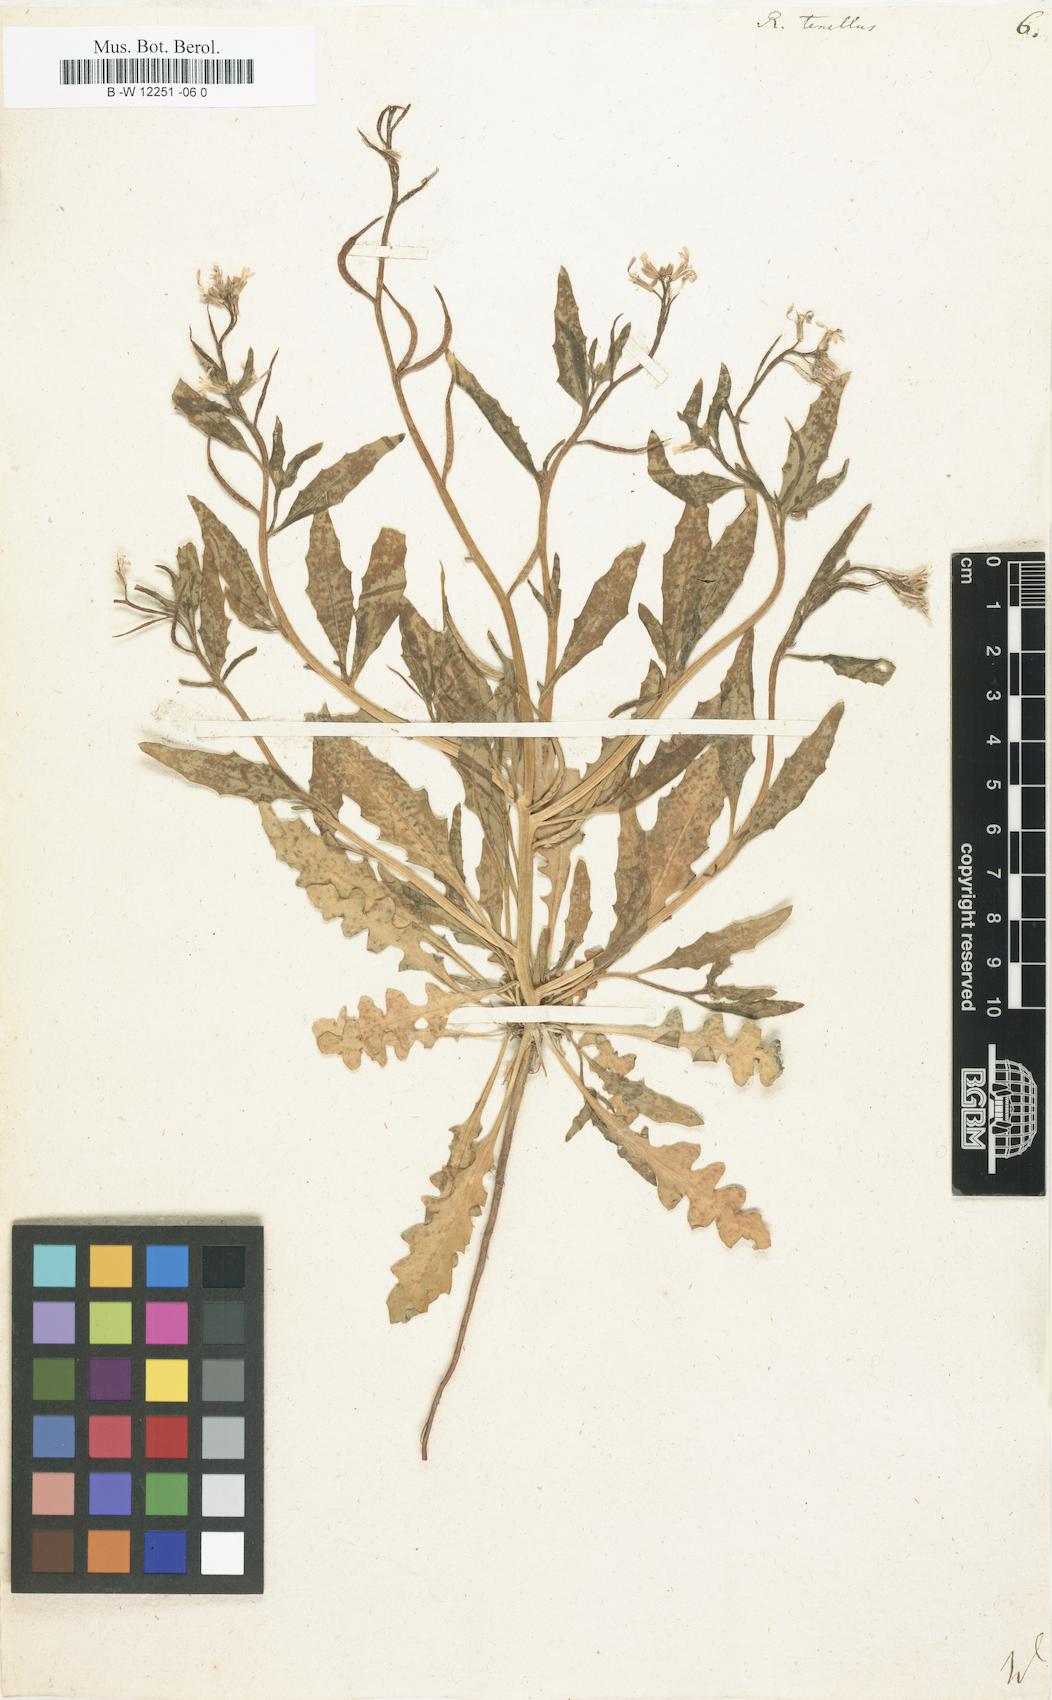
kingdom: Plantae
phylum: Tracheophyta
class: Magnoliopsida
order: Brassicales
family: Brassicaceae
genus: Chorispora
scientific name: Chorispora tenella
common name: Crossflower
